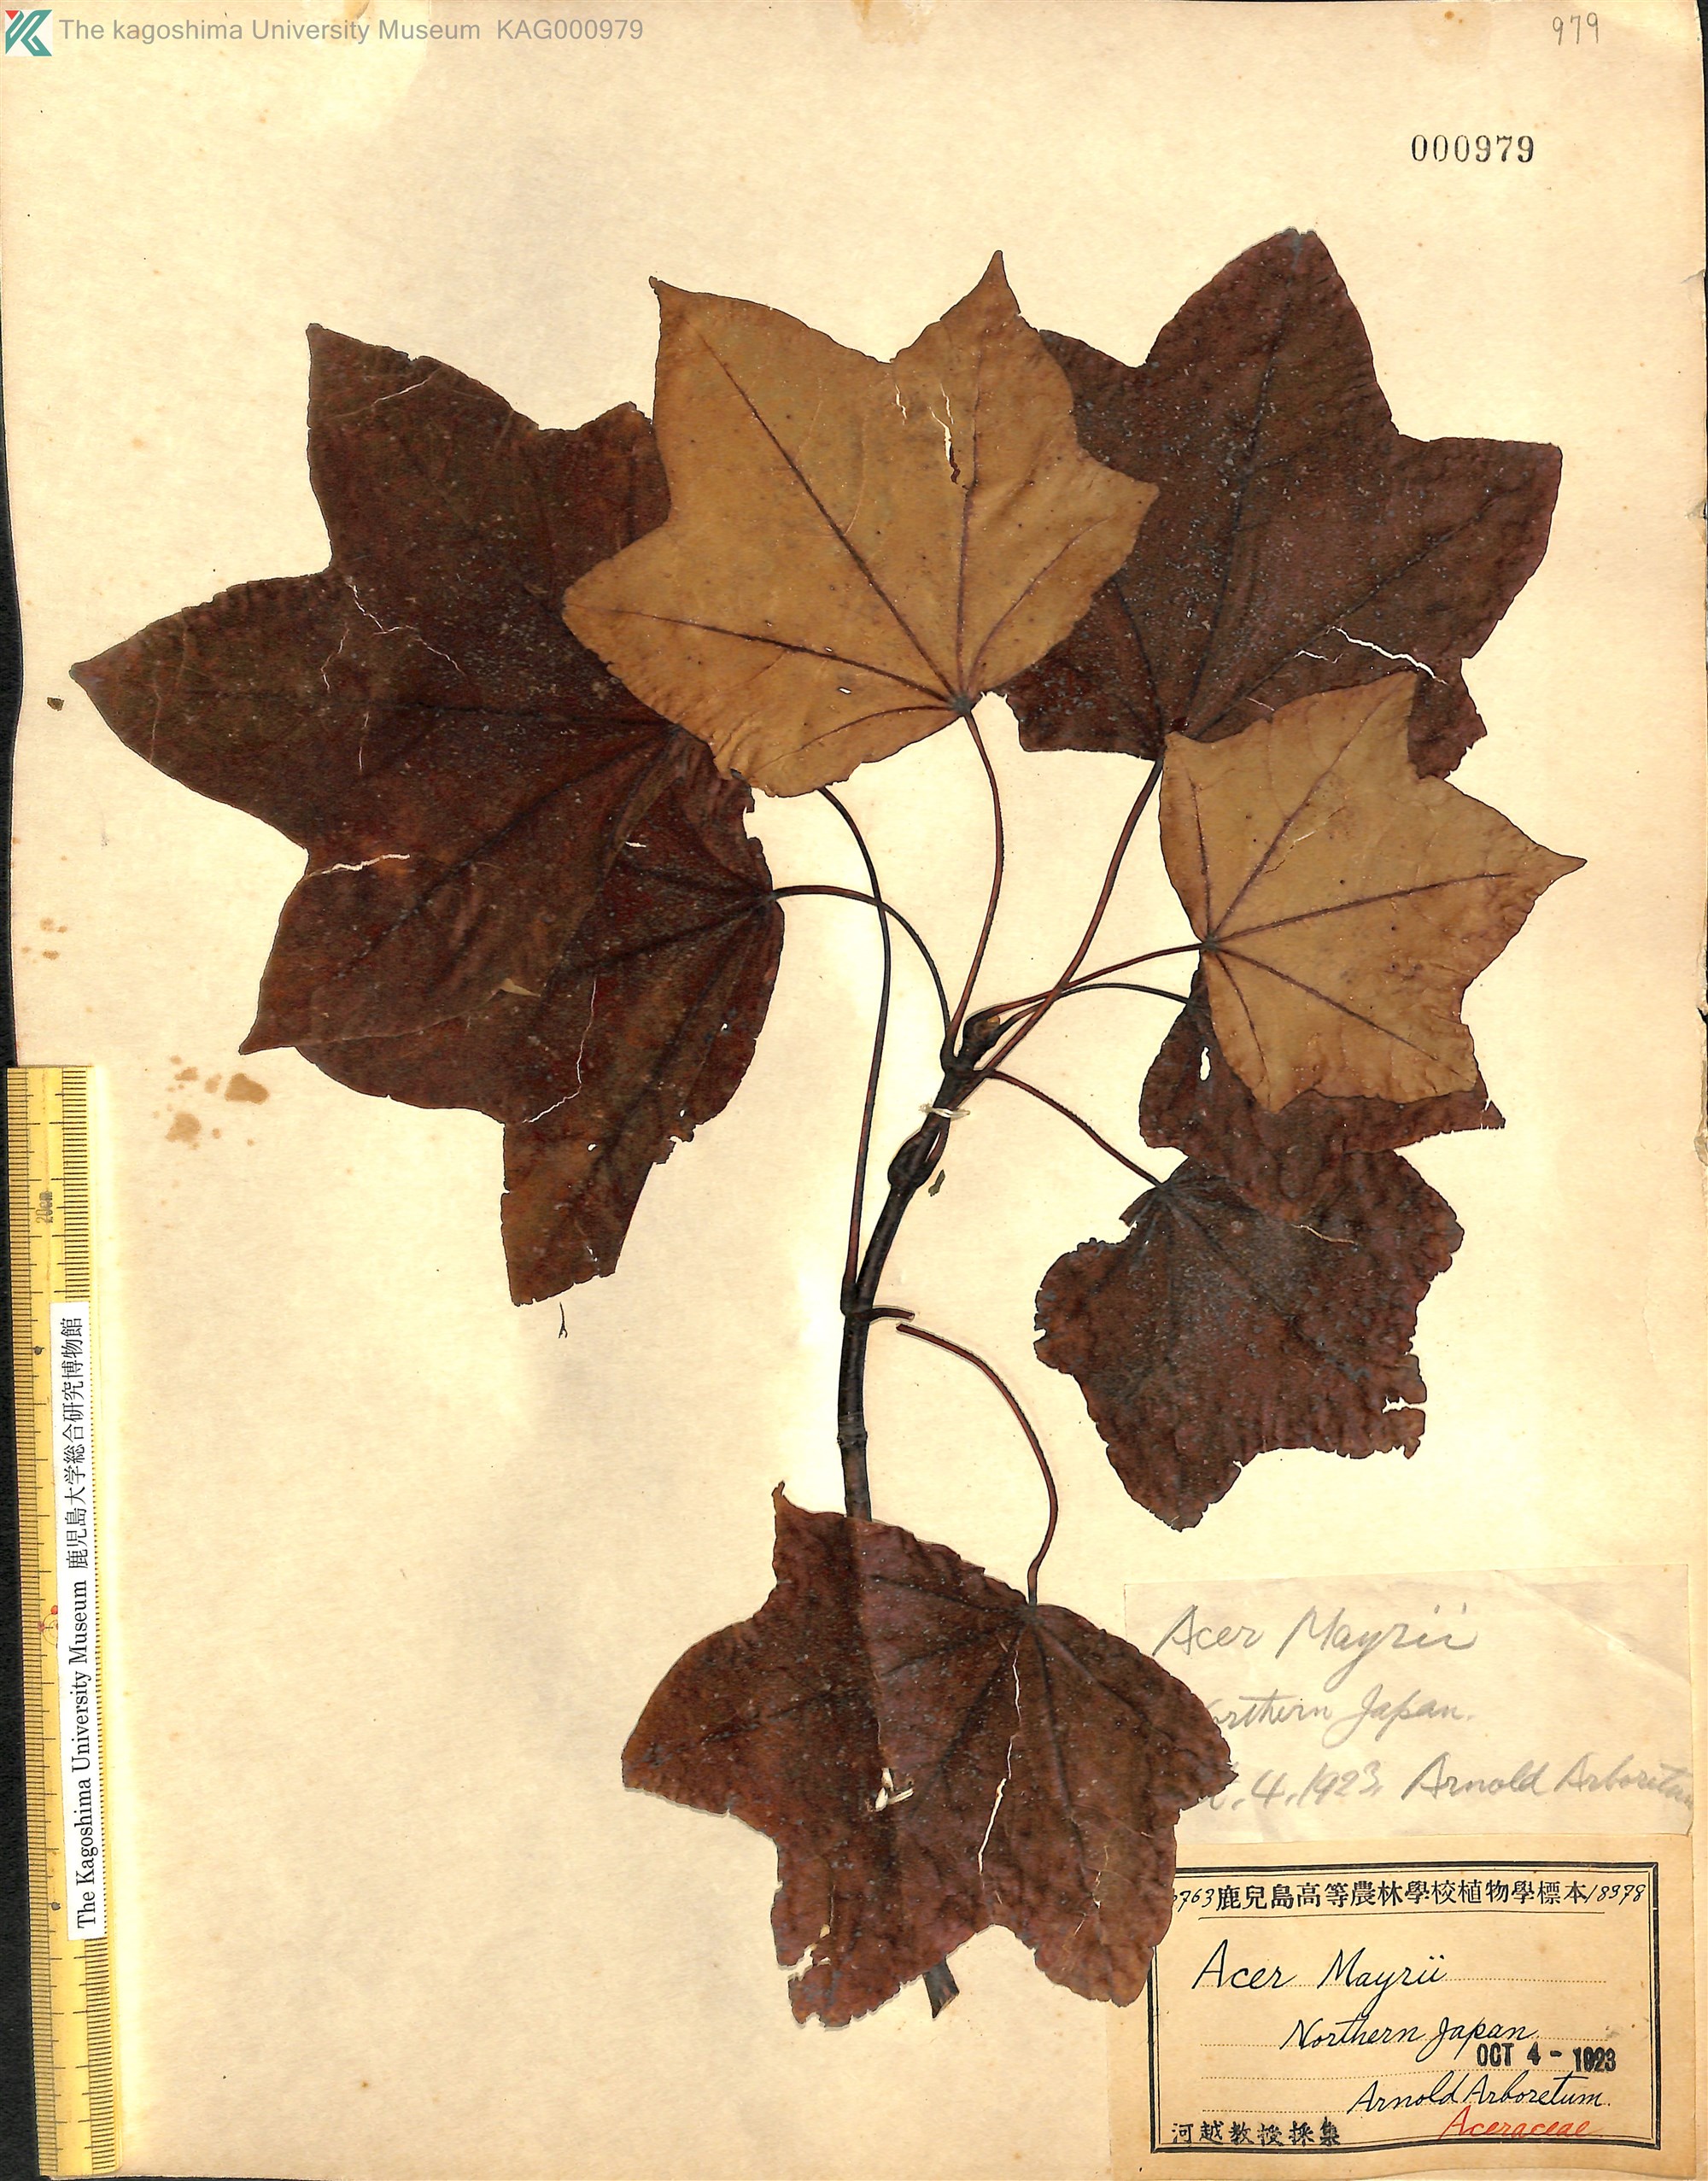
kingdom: Plantae
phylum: Tracheophyta
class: Magnoliopsida
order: Sapindales
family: Sapindaceae
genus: Acer
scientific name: Acer pictum
